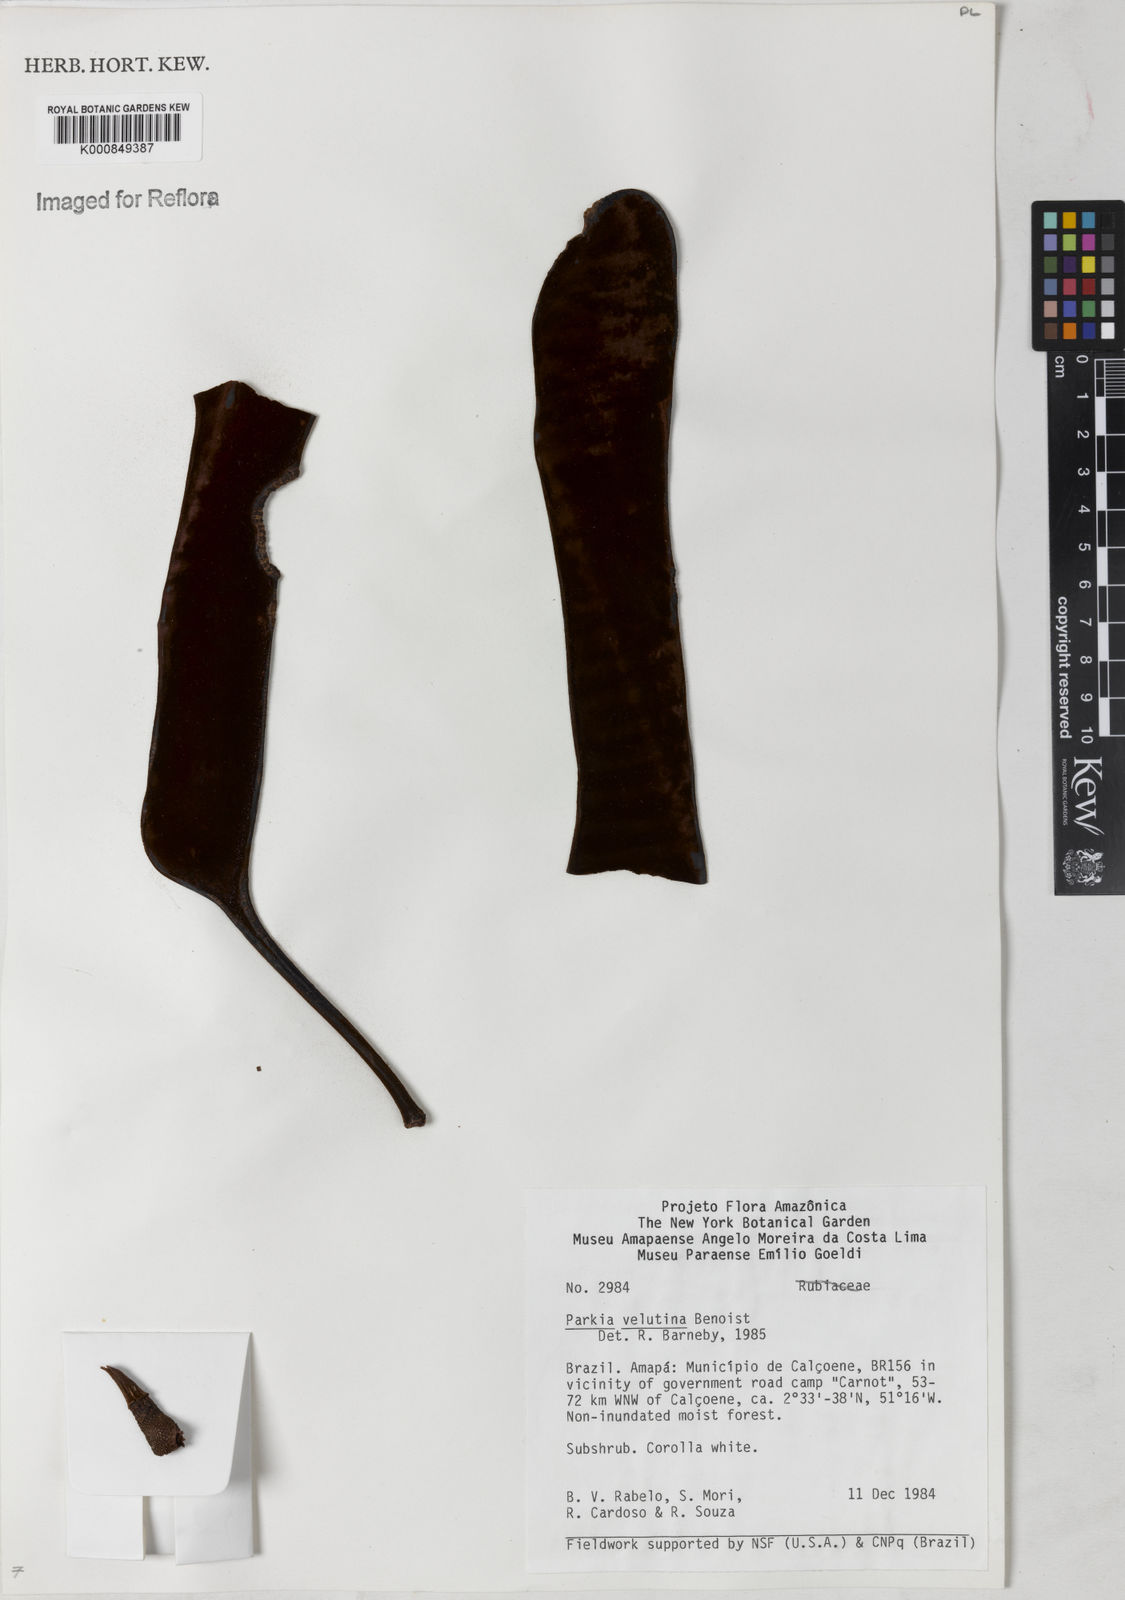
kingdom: Plantae
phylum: Tracheophyta
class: Magnoliopsida
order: Fabales
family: Fabaceae
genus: Parkia
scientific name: Parkia velutina
